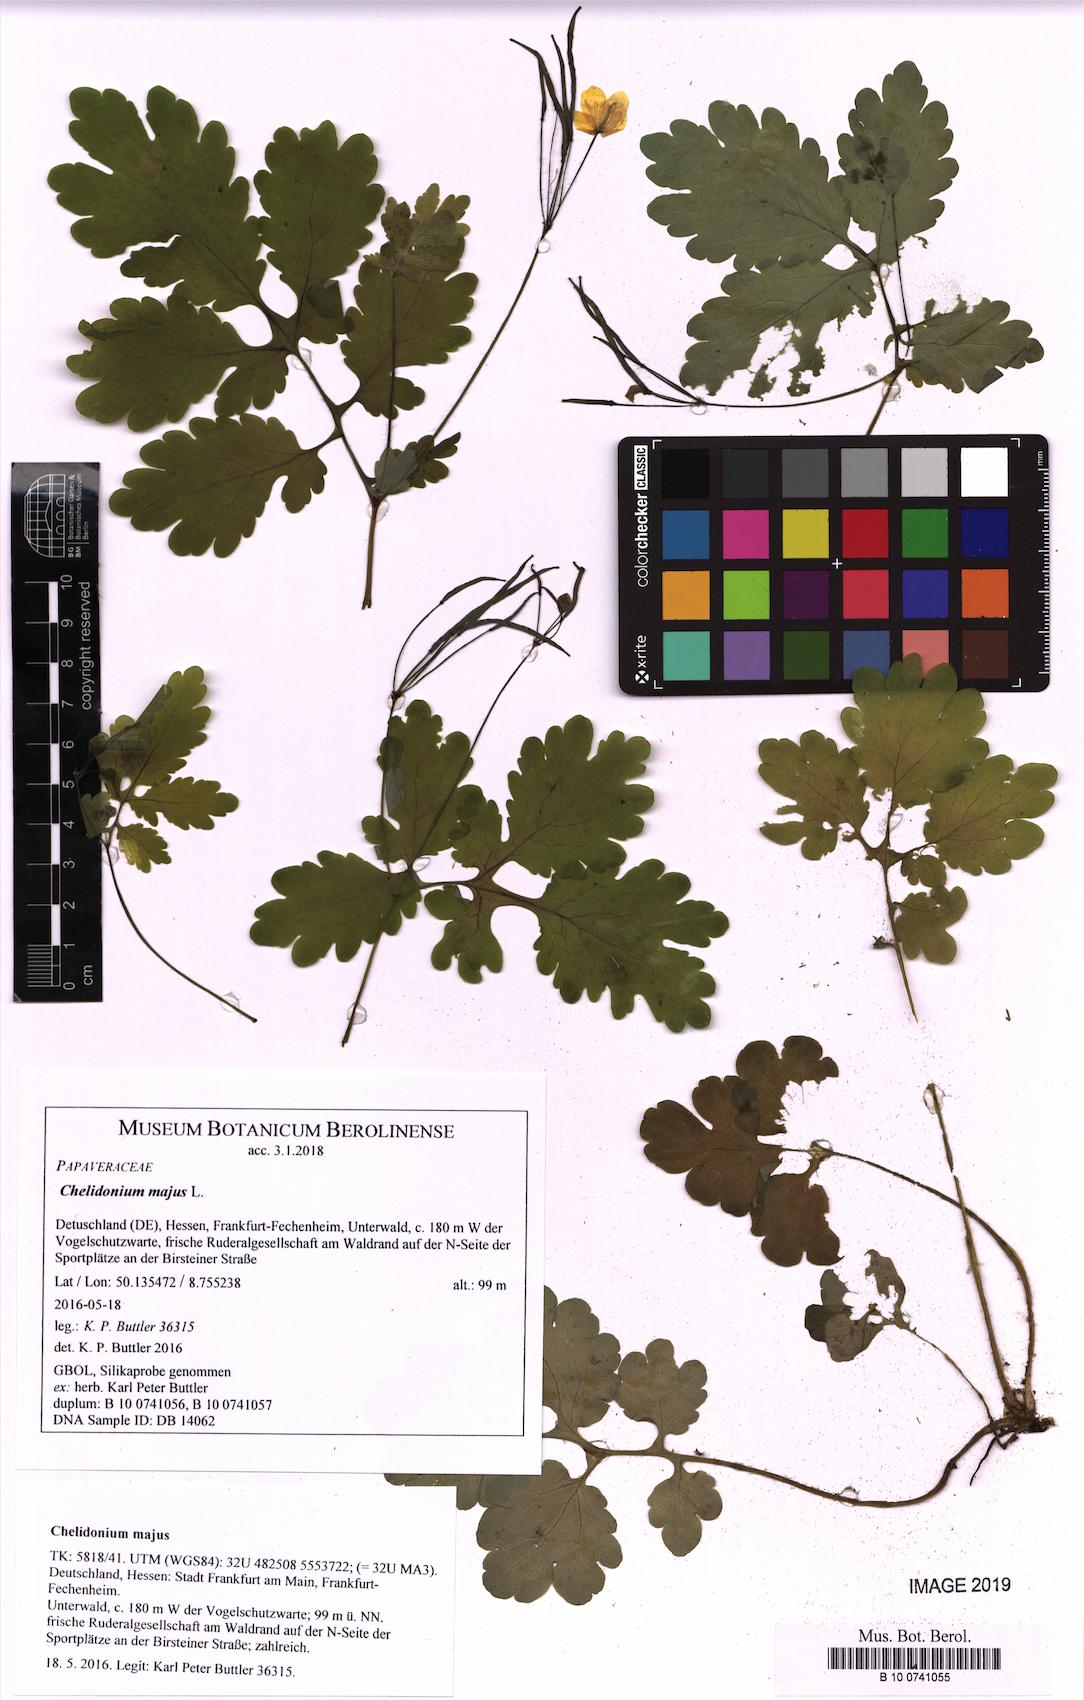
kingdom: Plantae
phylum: Tracheophyta
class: Magnoliopsida
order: Ranunculales
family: Papaveraceae
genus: Chelidonium
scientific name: Chelidonium majus
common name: Greater celandine
